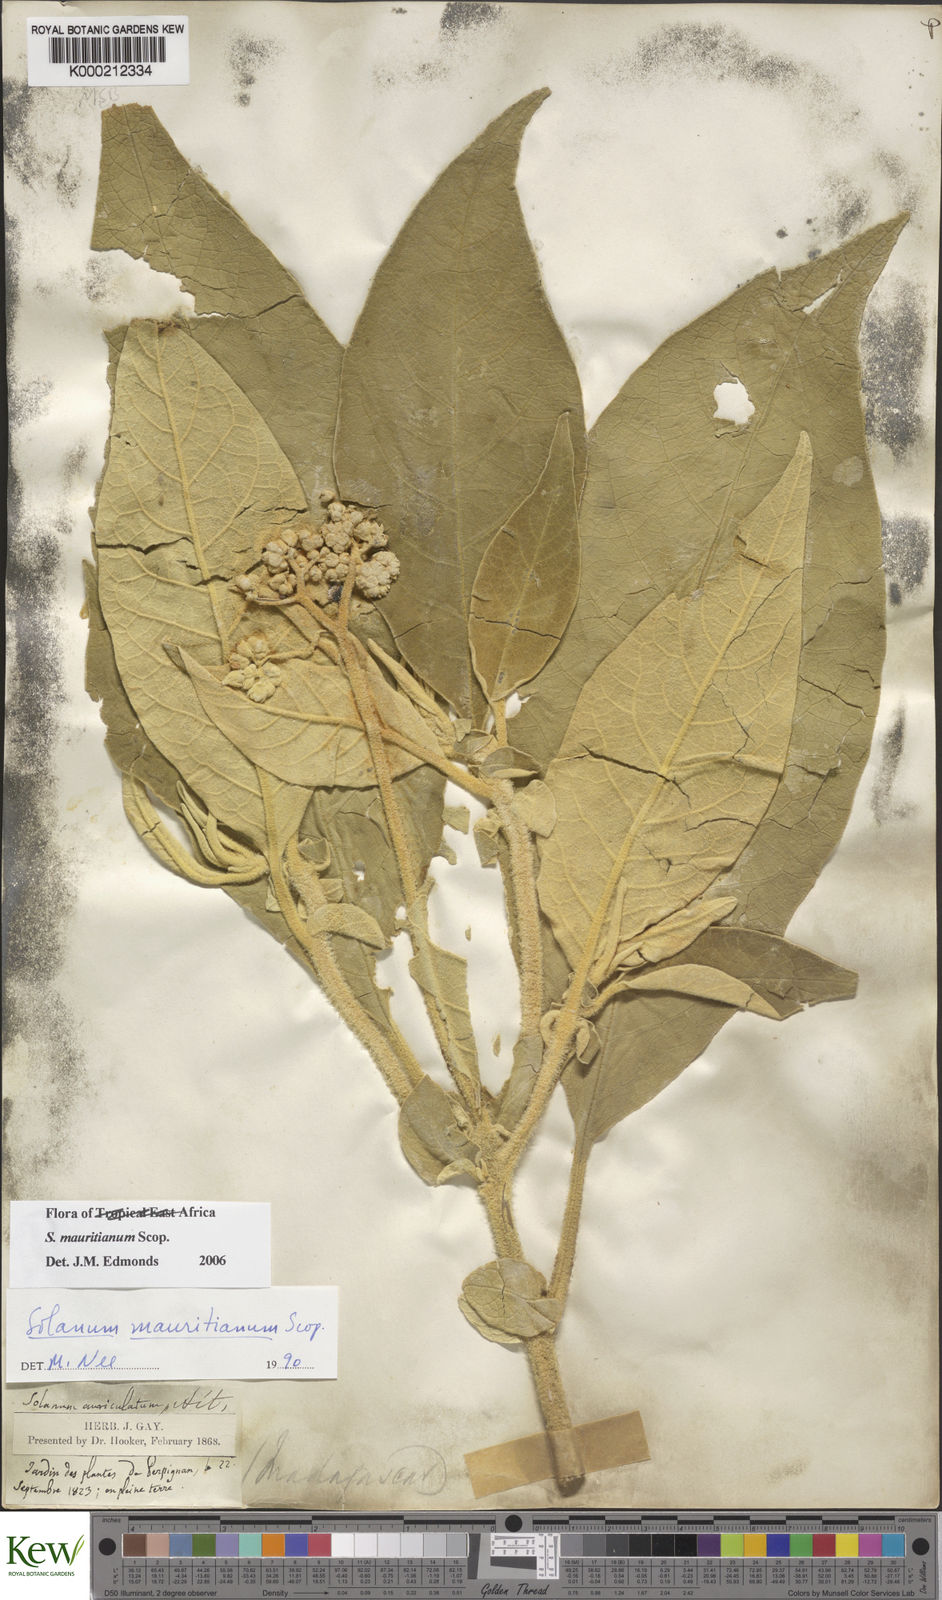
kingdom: Plantae
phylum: Tracheophyta
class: Magnoliopsida
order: Solanales
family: Solanaceae
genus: Solanum
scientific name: Solanum mauritianum
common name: Earleaf nightshade
